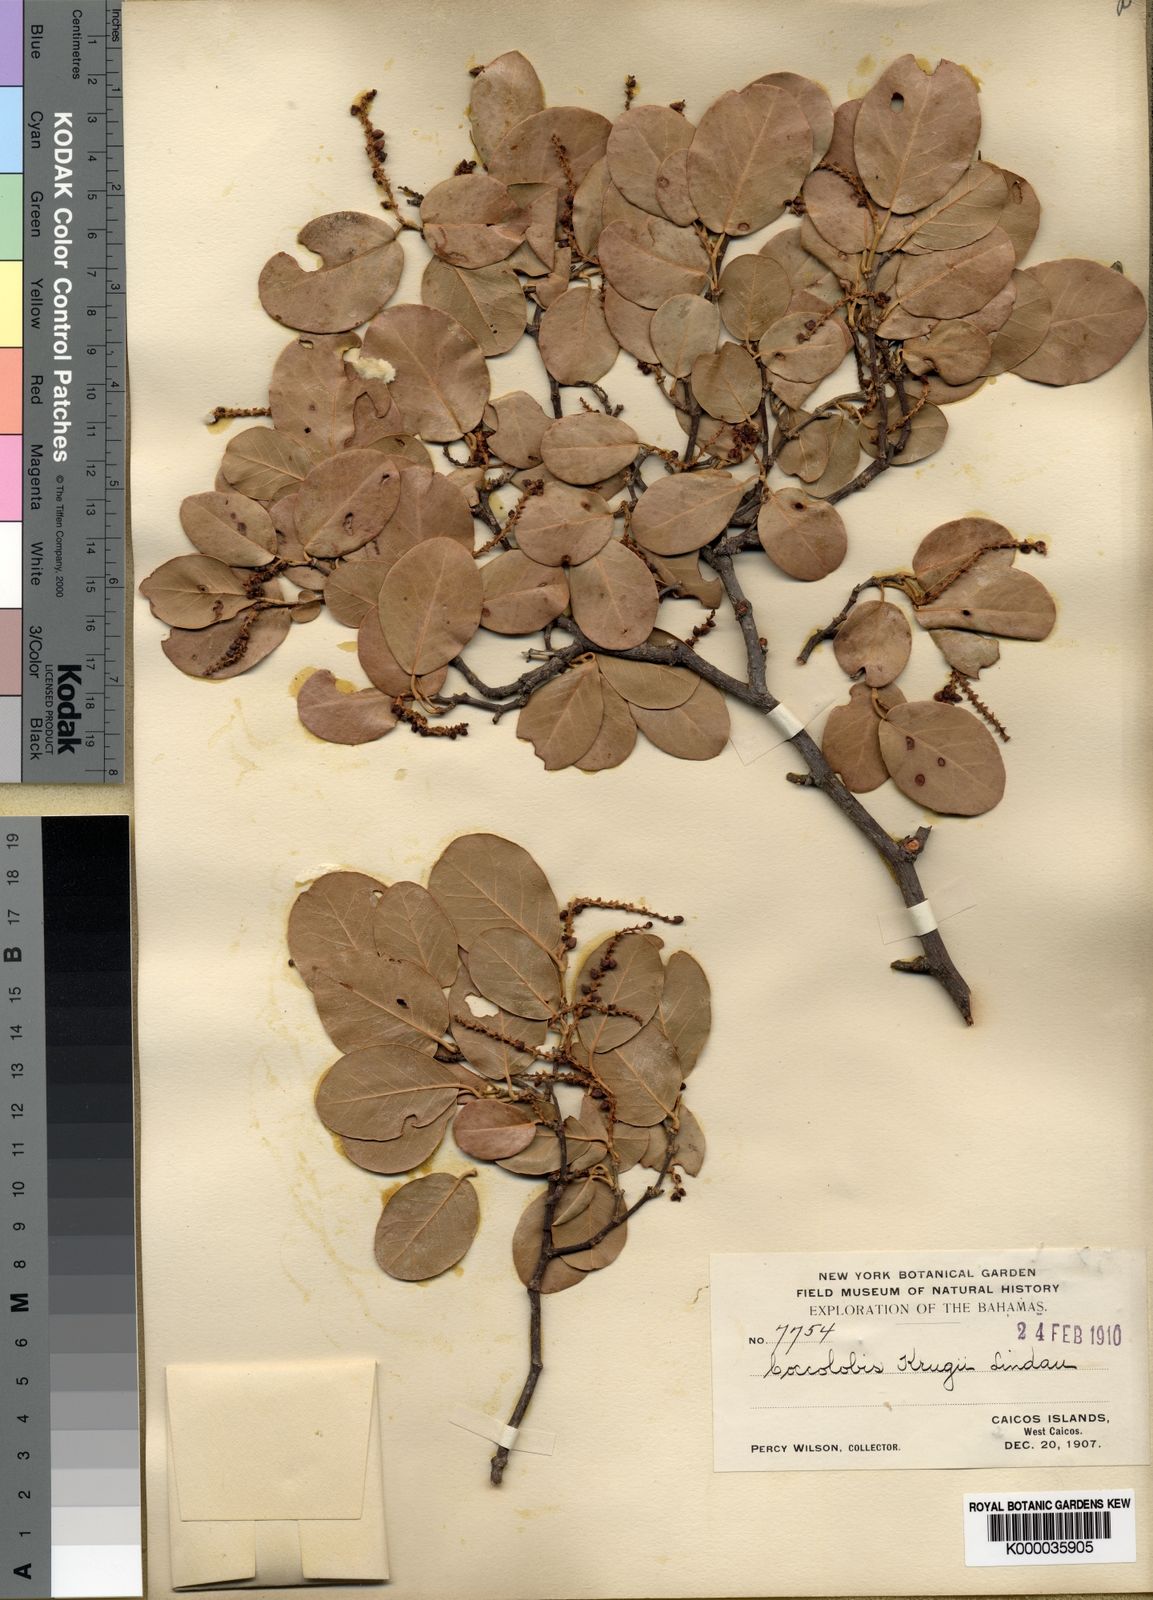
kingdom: Plantae
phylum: Tracheophyta
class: Magnoliopsida
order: Caryophyllales
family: Polygonaceae
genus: Coccoloba
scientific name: Coccoloba krugii
